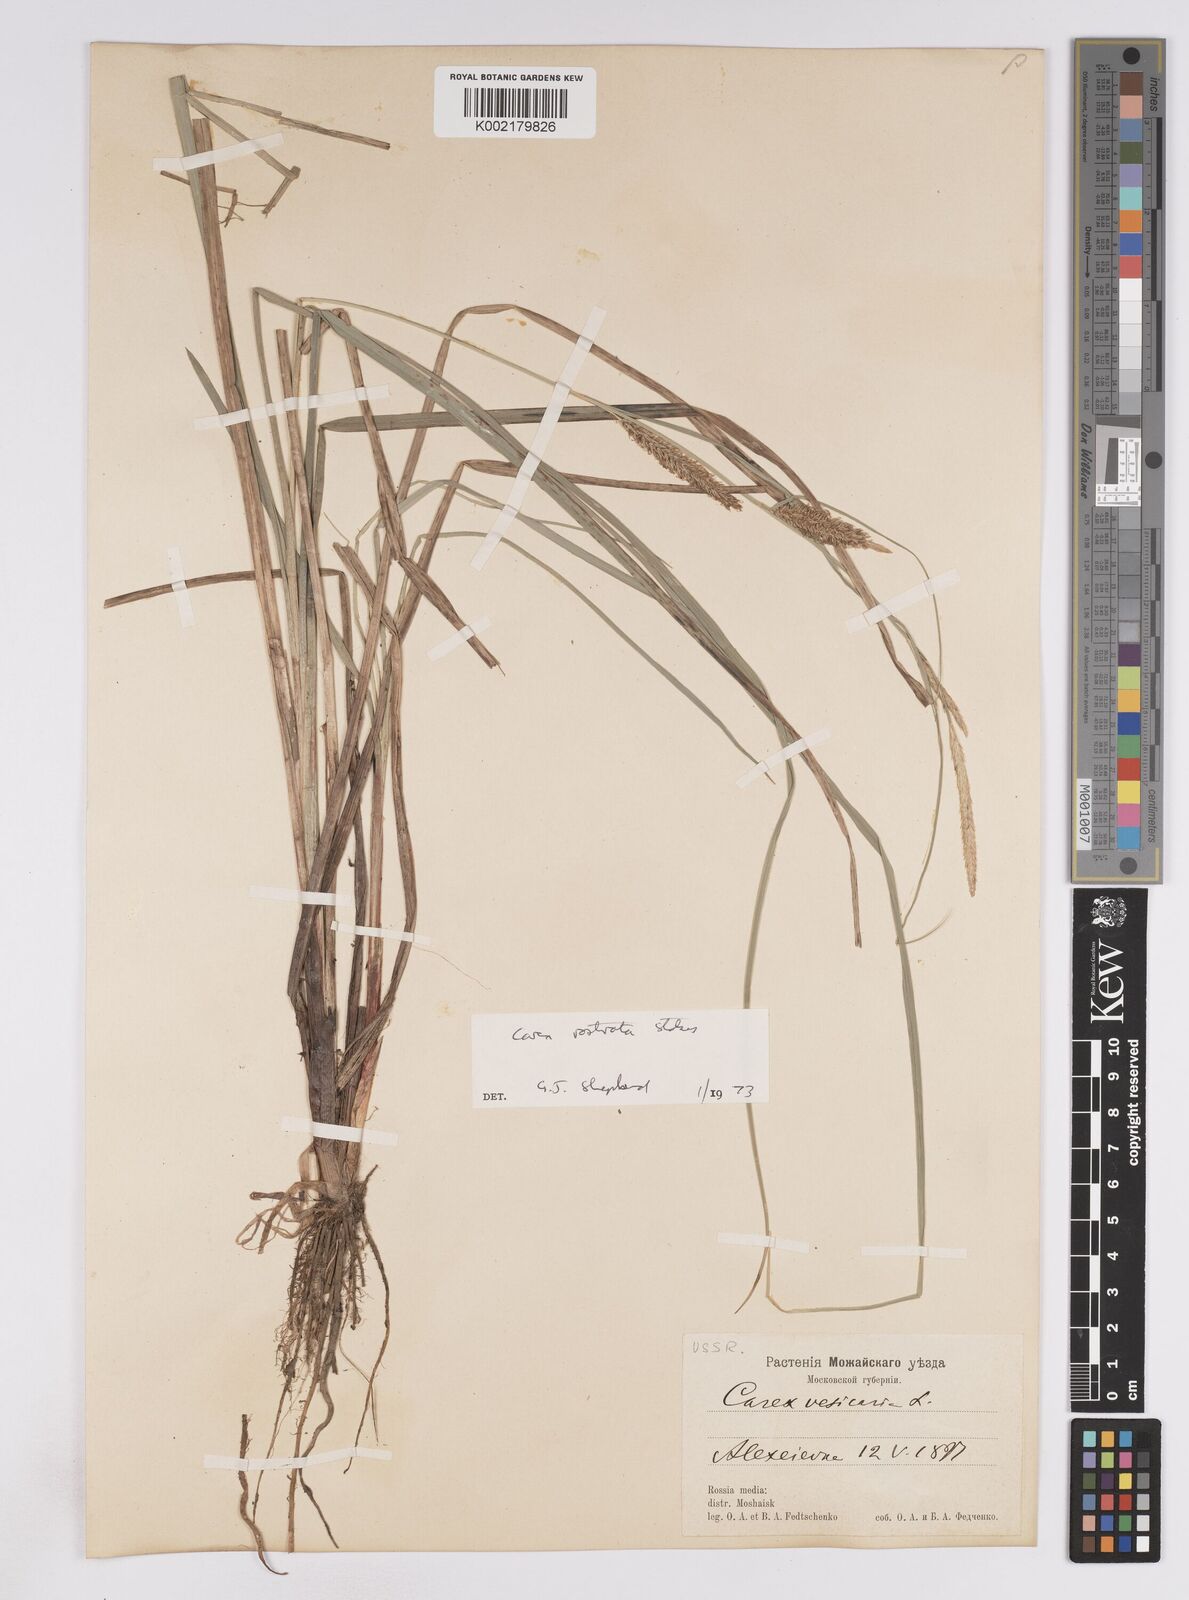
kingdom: Plantae
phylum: Tracheophyta
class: Liliopsida
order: Poales
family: Cyperaceae
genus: Carex
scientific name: Carex rostrata
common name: Bottle sedge
